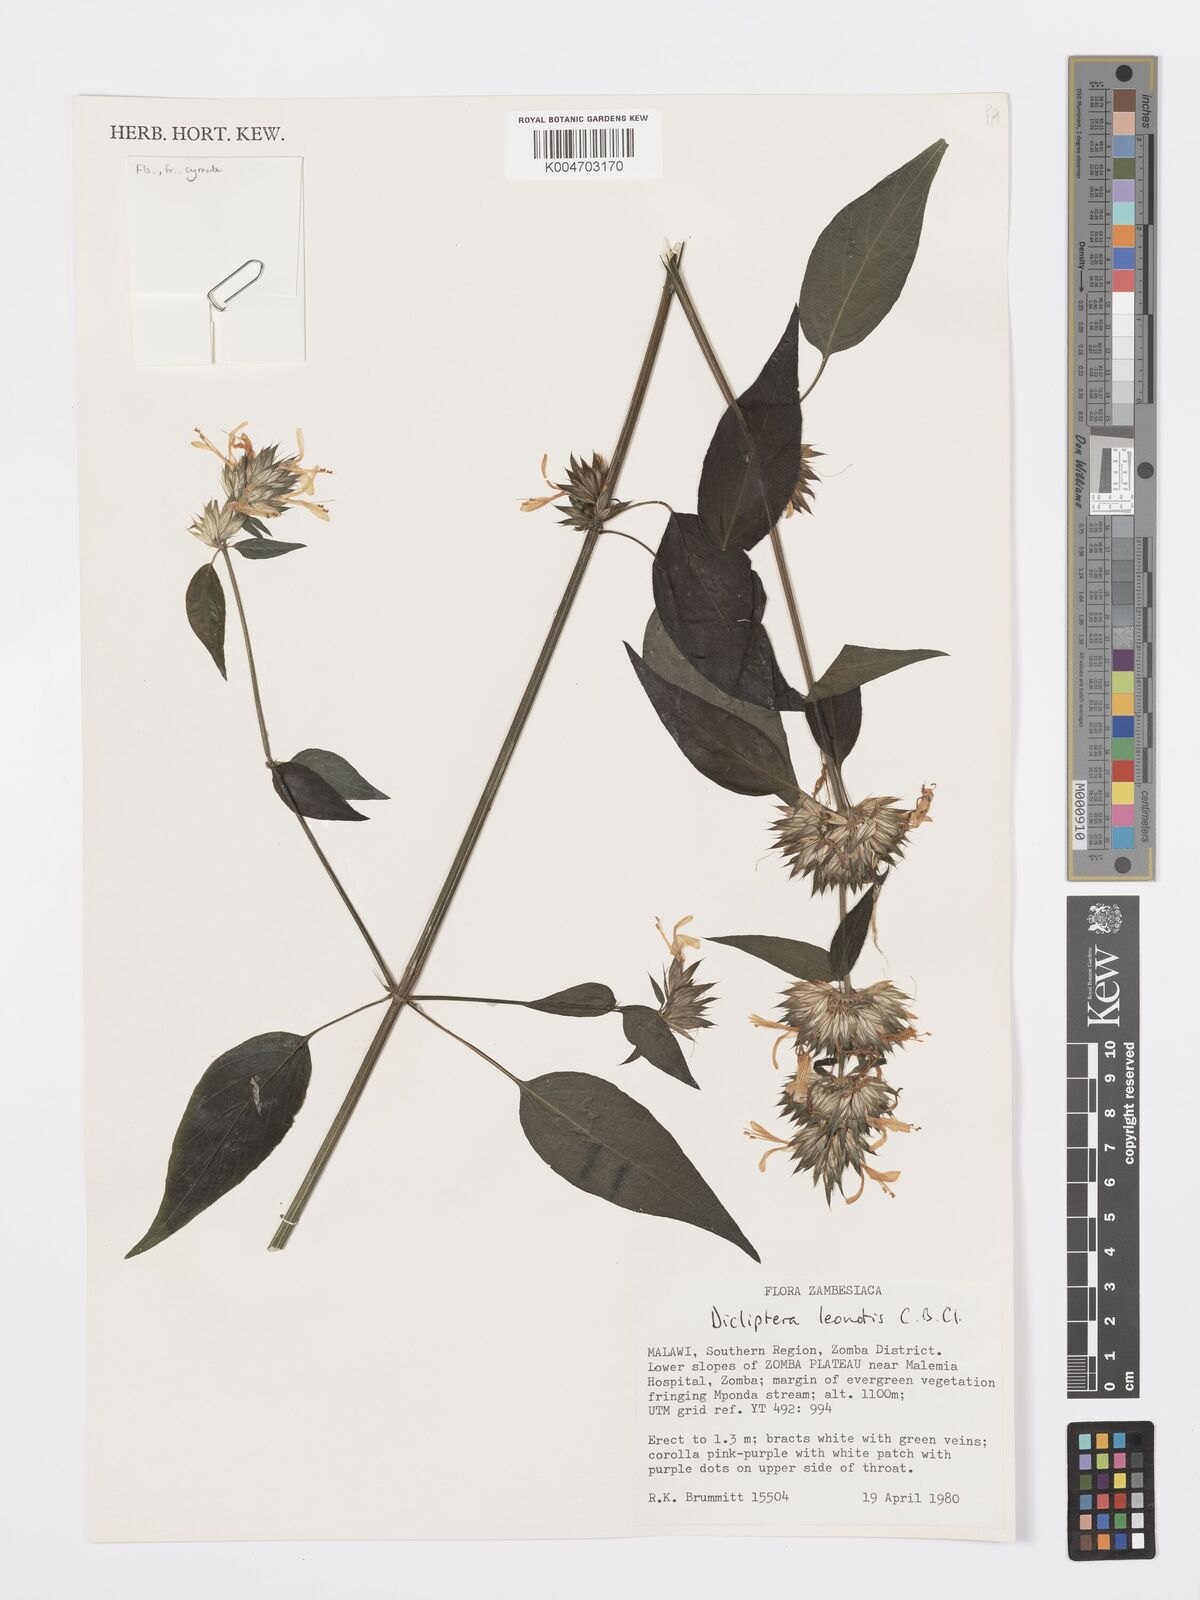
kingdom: Plantae
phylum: Tracheophyta
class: Magnoliopsida
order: Lamiales
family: Acanthaceae
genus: Dicliptera
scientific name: Dicliptera clinopodia
